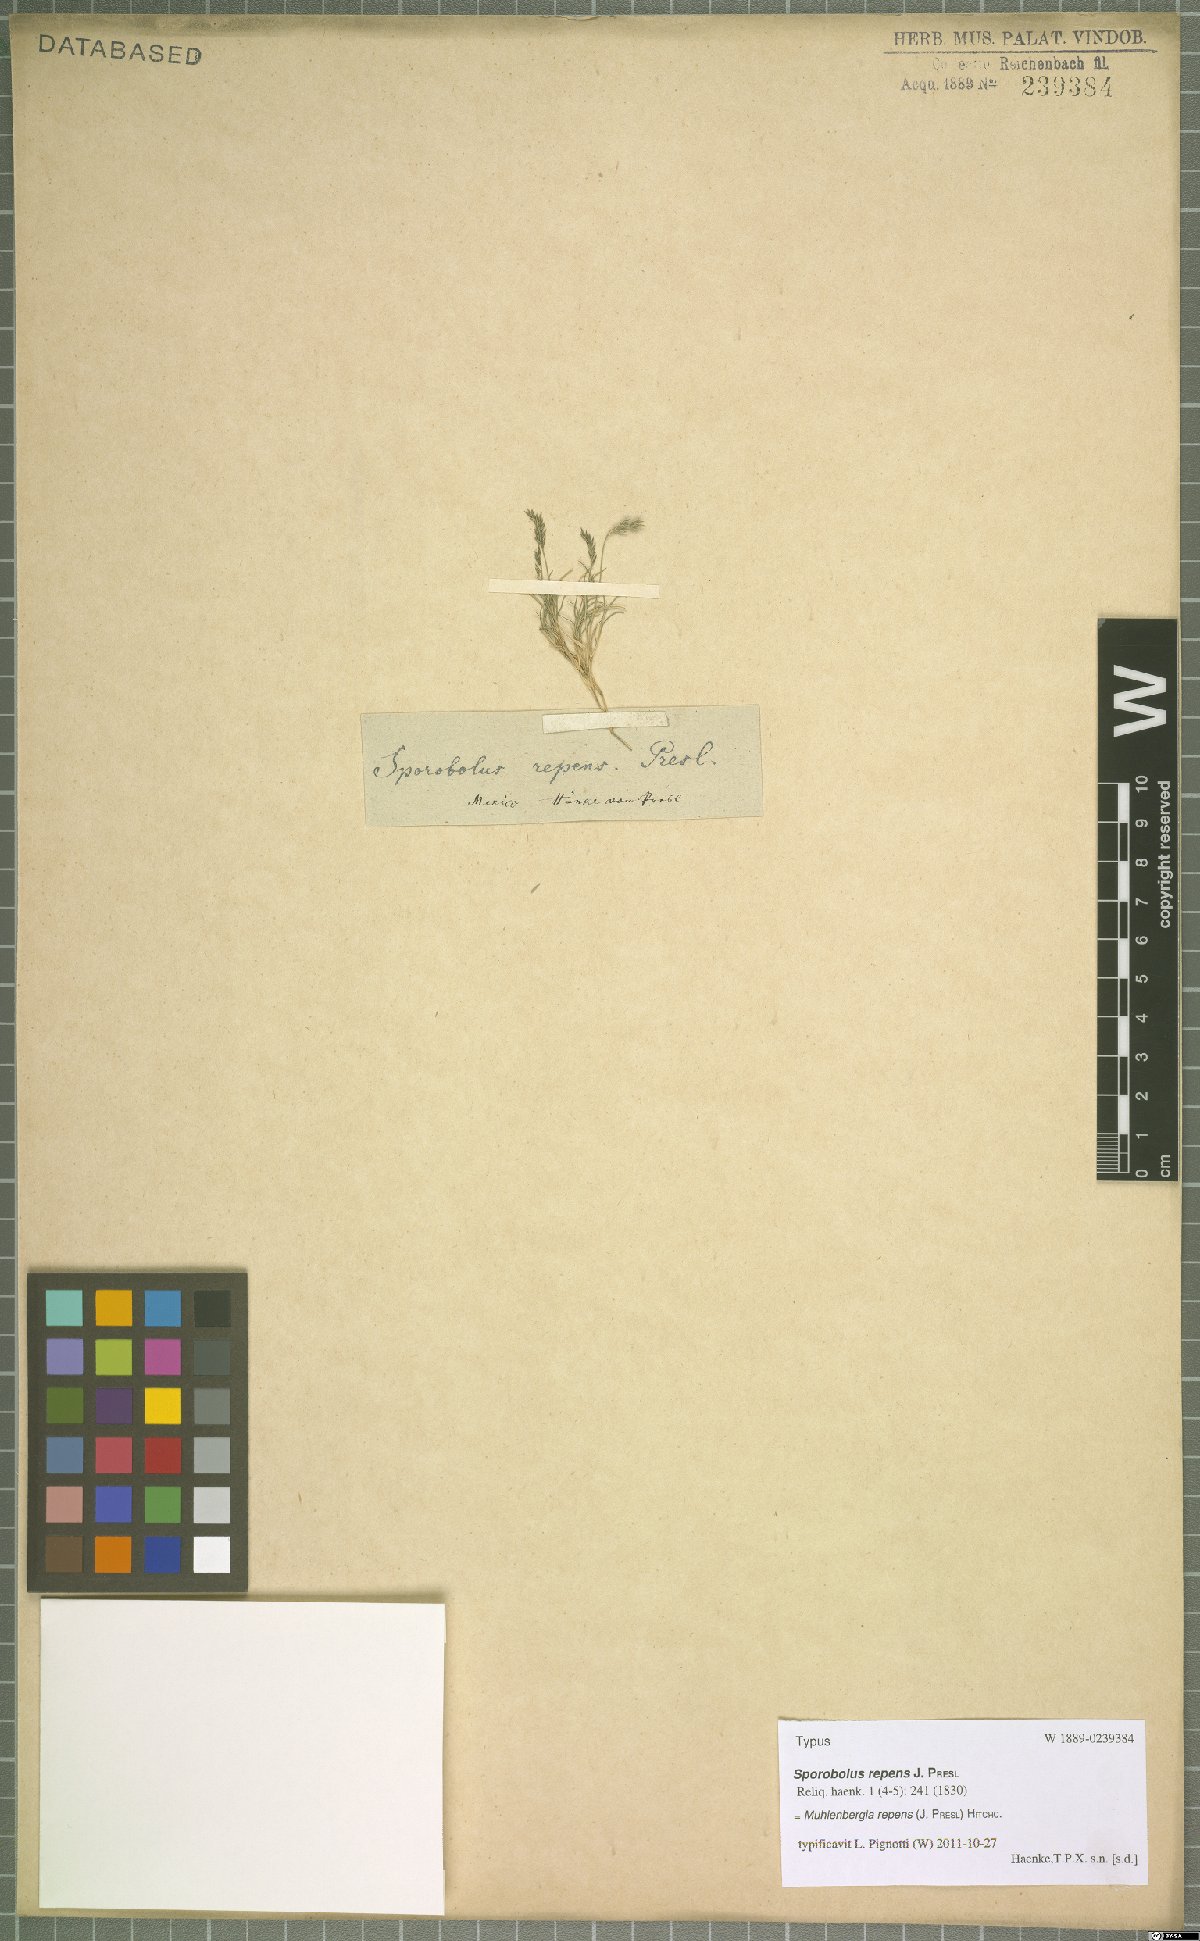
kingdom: Plantae
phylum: Tracheophyta
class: Liliopsida
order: Poales
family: Poaceae
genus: Muhlenbergia
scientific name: Muhlenbergia repens
